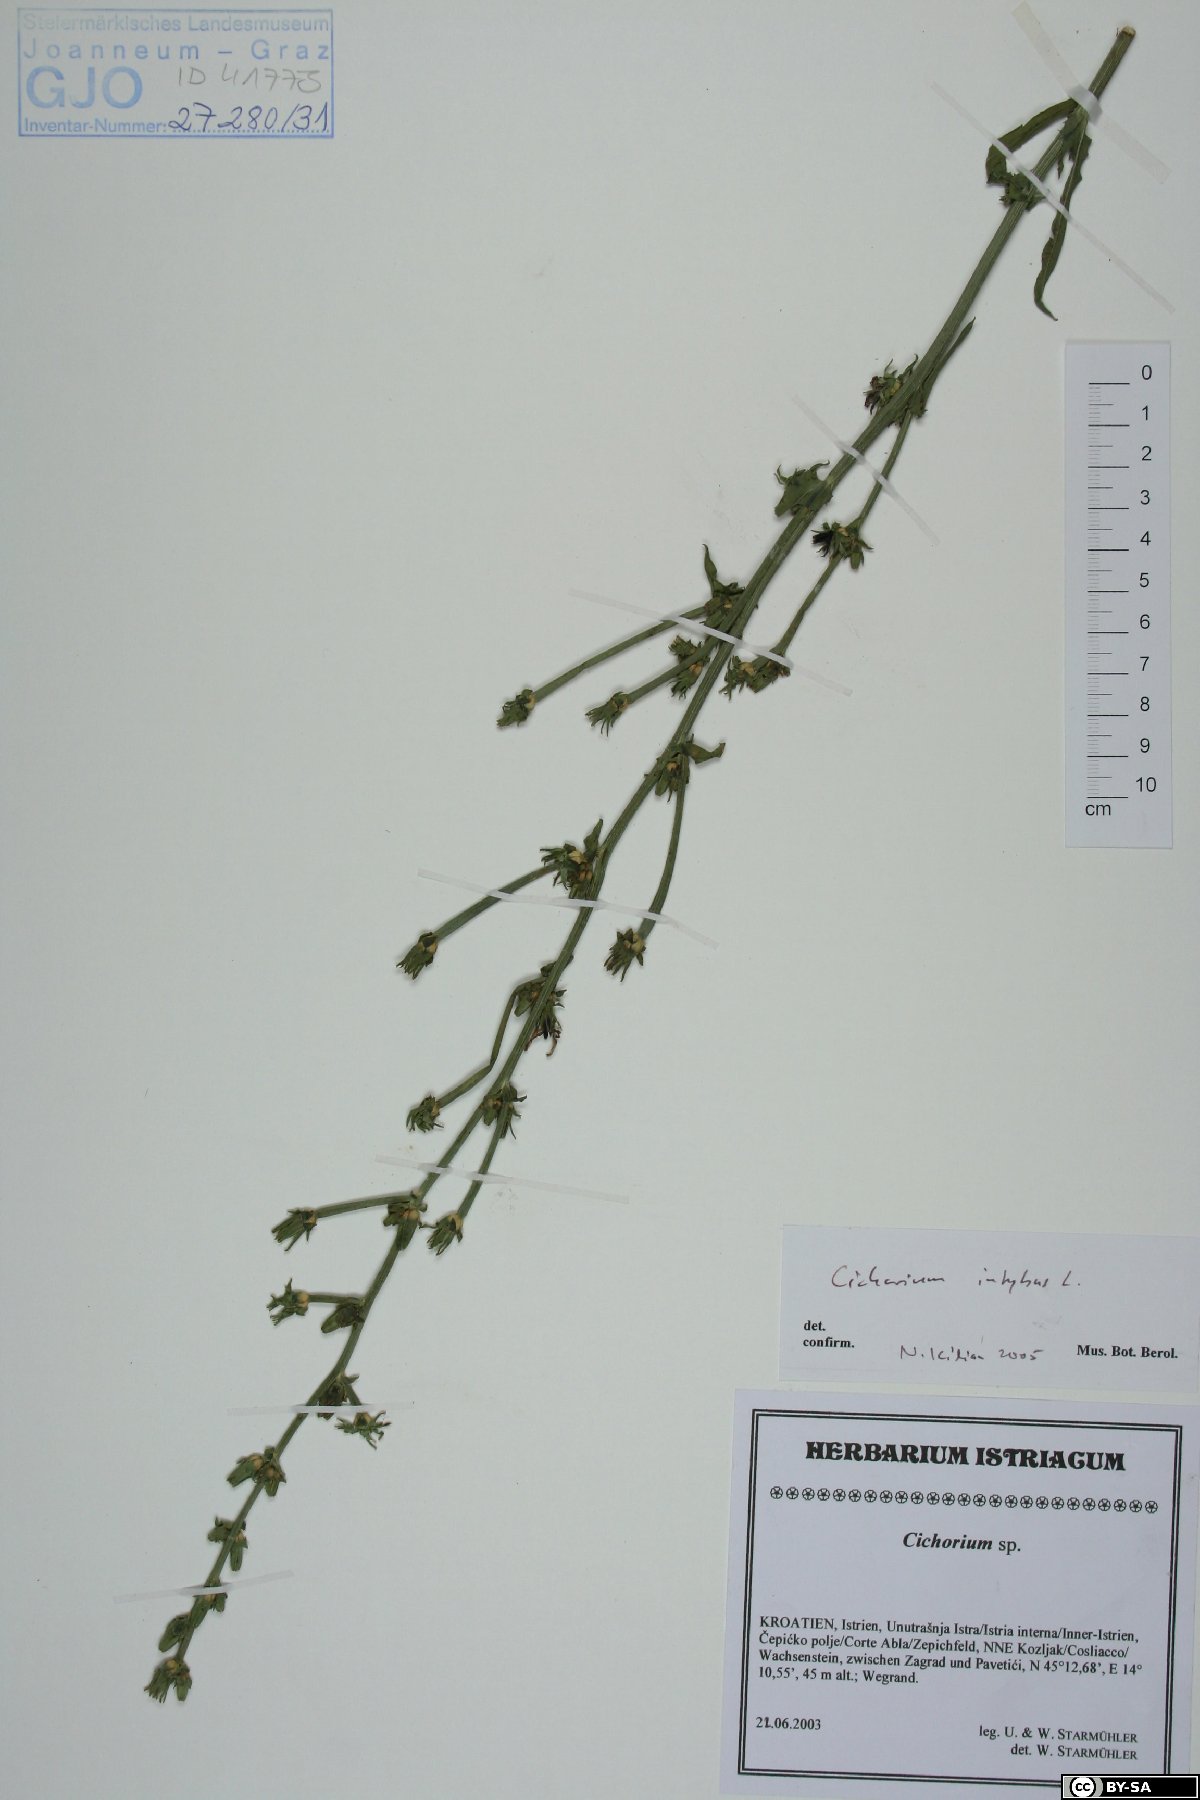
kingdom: Plantae
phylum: Tracheophyta
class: Magnoliopsida
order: Asterales
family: Asteraceae
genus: Cichorium
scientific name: Cichorium intybus
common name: Chicory
